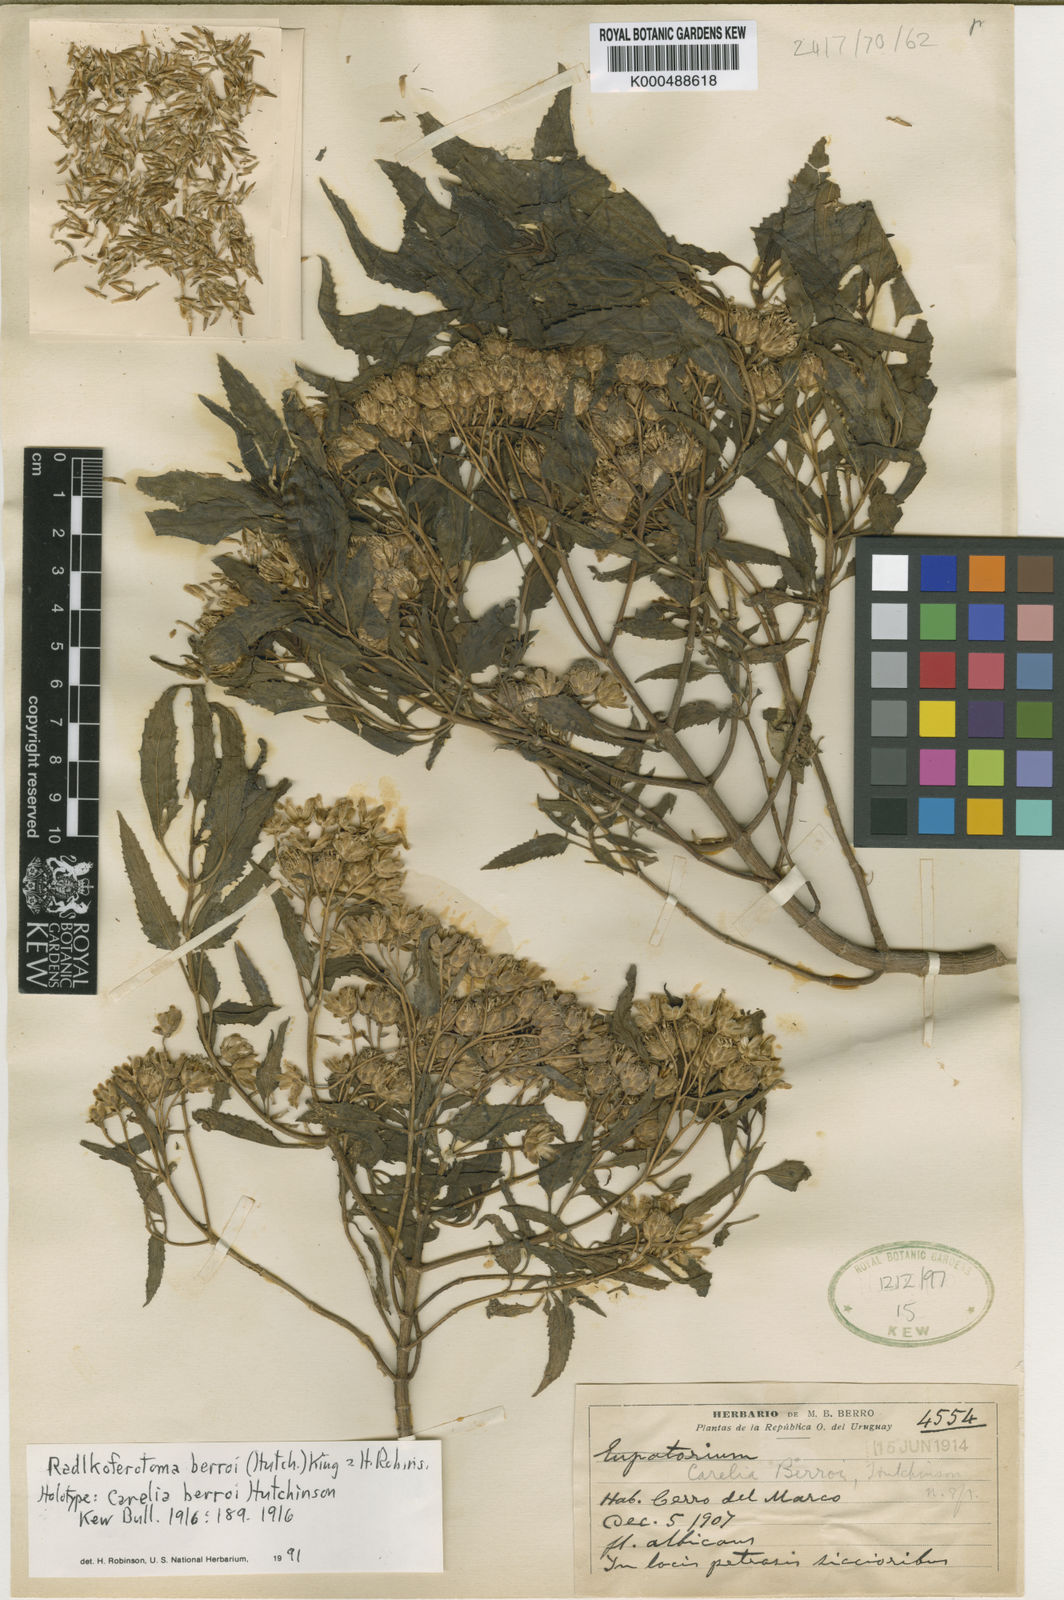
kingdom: Plantae
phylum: Tracheophyta
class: Magnoliopsida
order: Asterales
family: Asteraceae
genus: Radlkoferotoma
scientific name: Radlkoferotoma berroi
